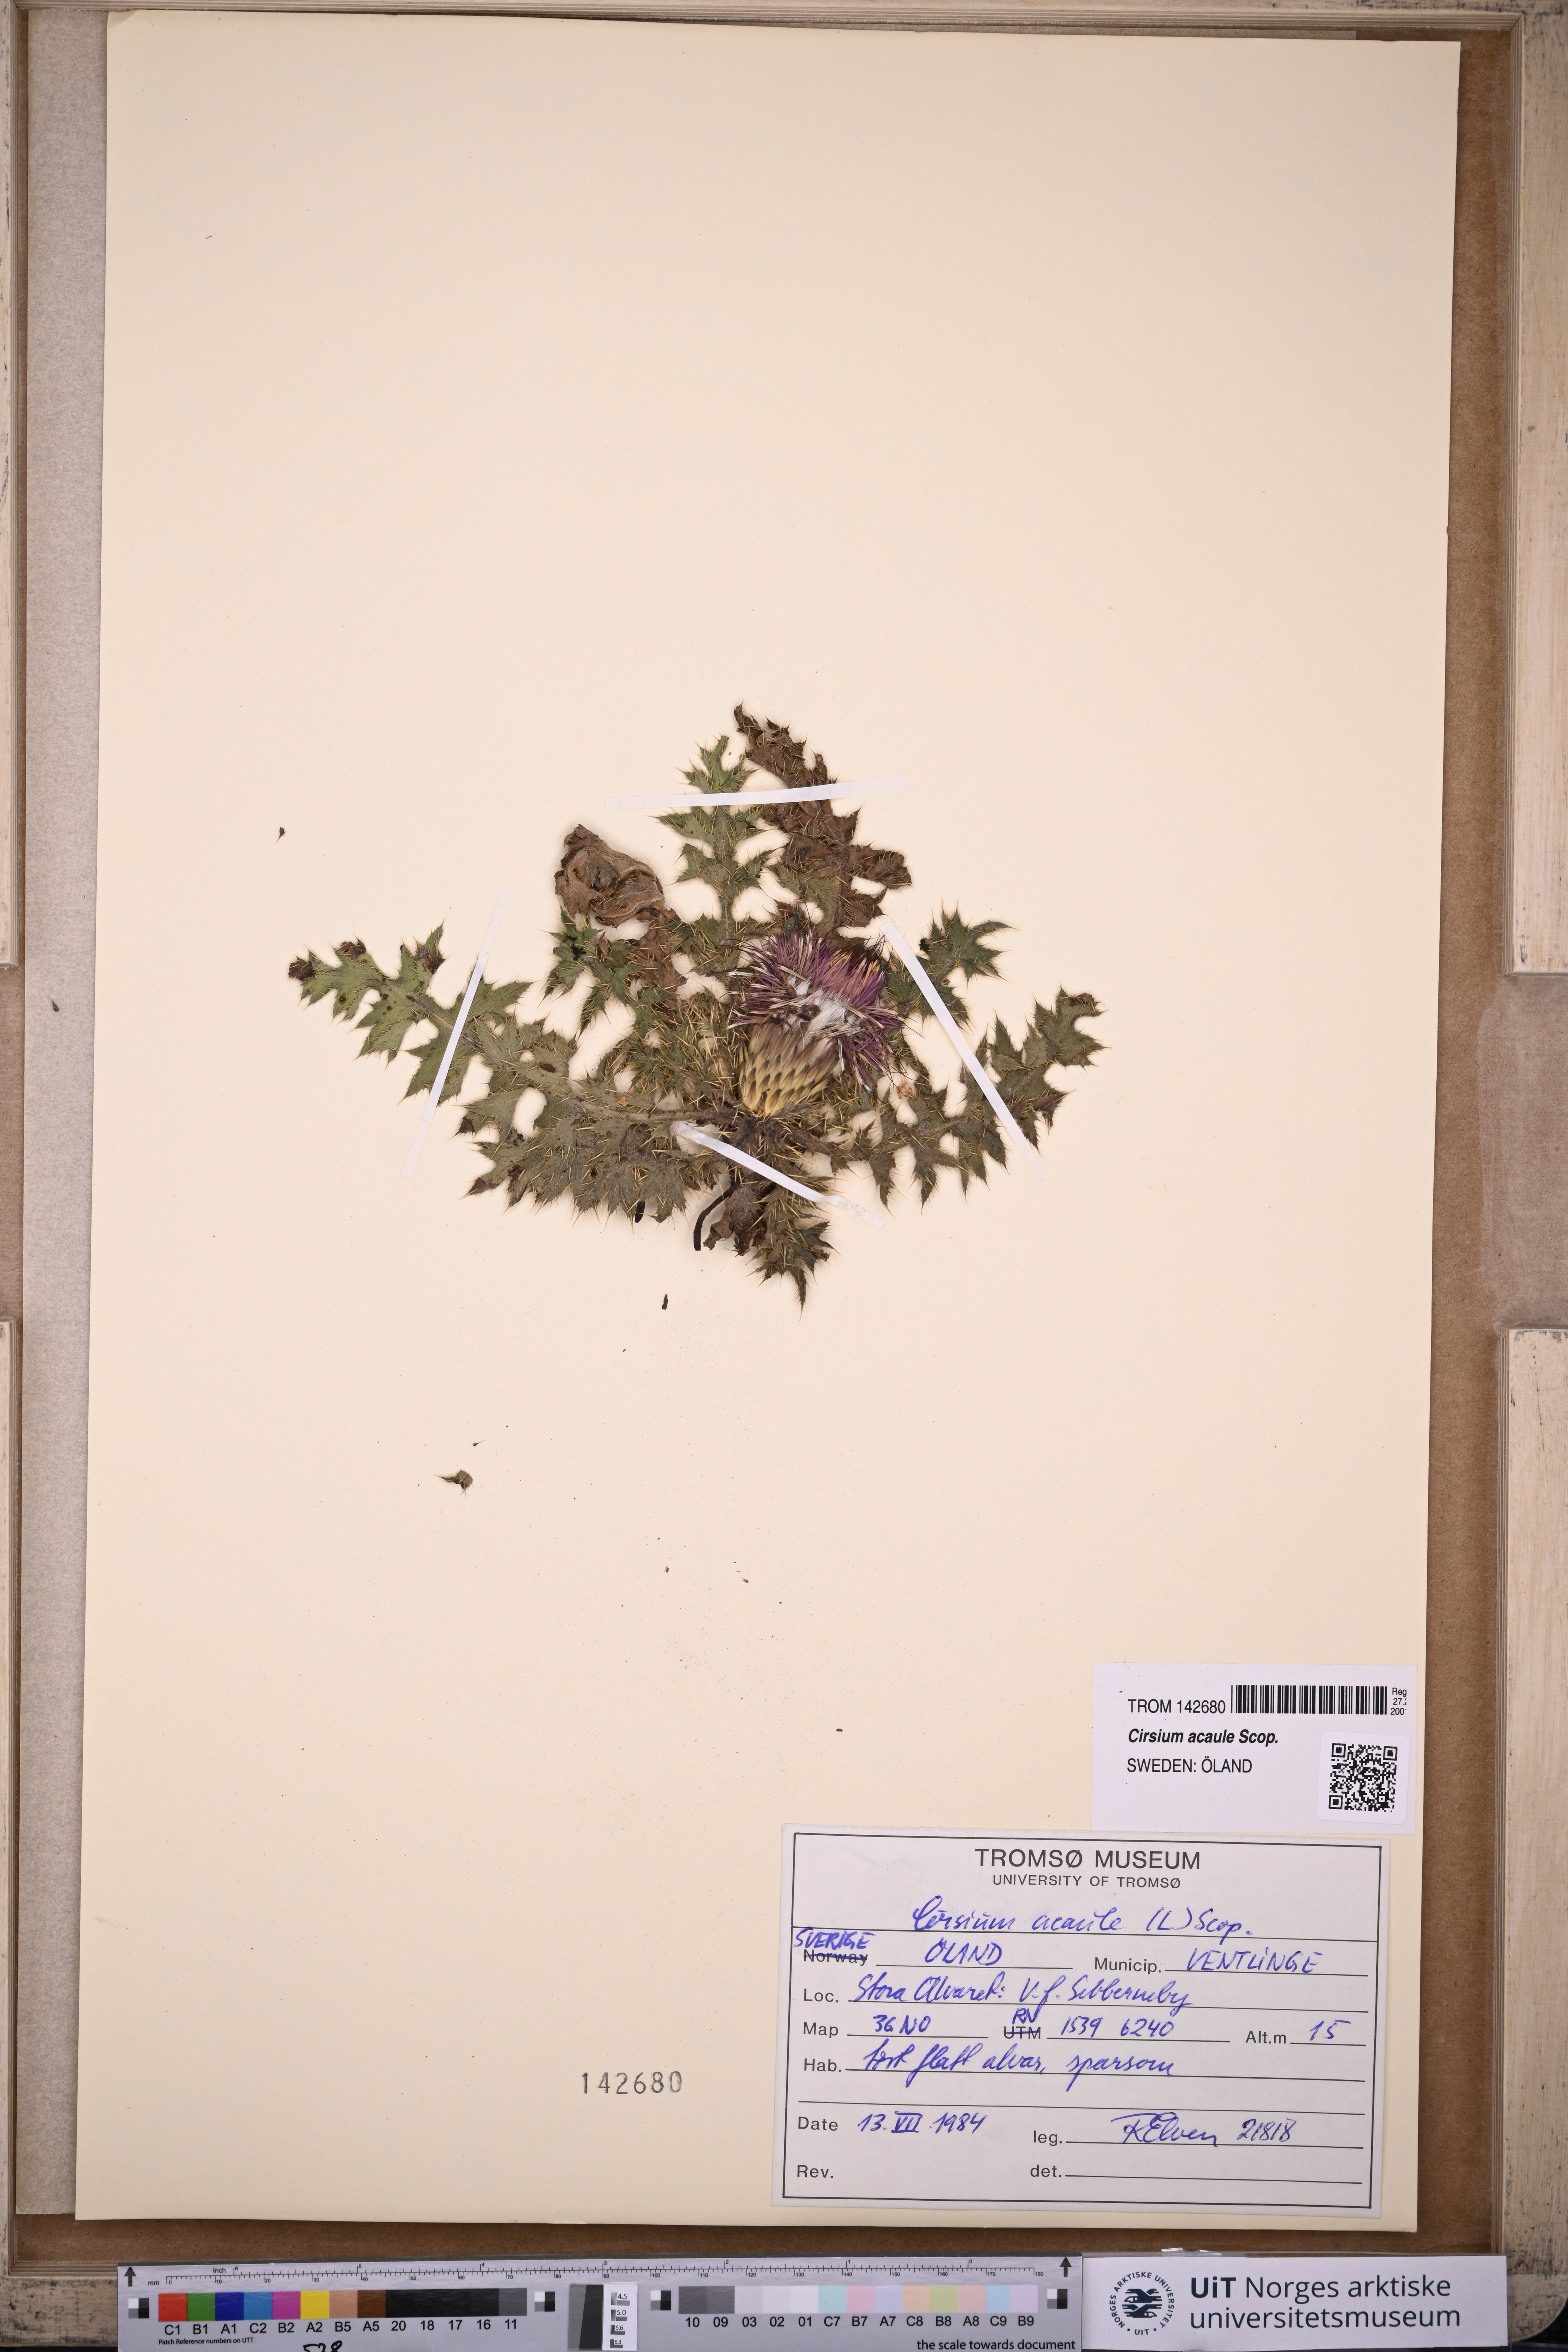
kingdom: Plantae
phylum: Tracheophyta
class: Magnoliopsida
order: Asterales
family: Asteraceae
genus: Cirsium
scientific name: Cirsium acaulon
